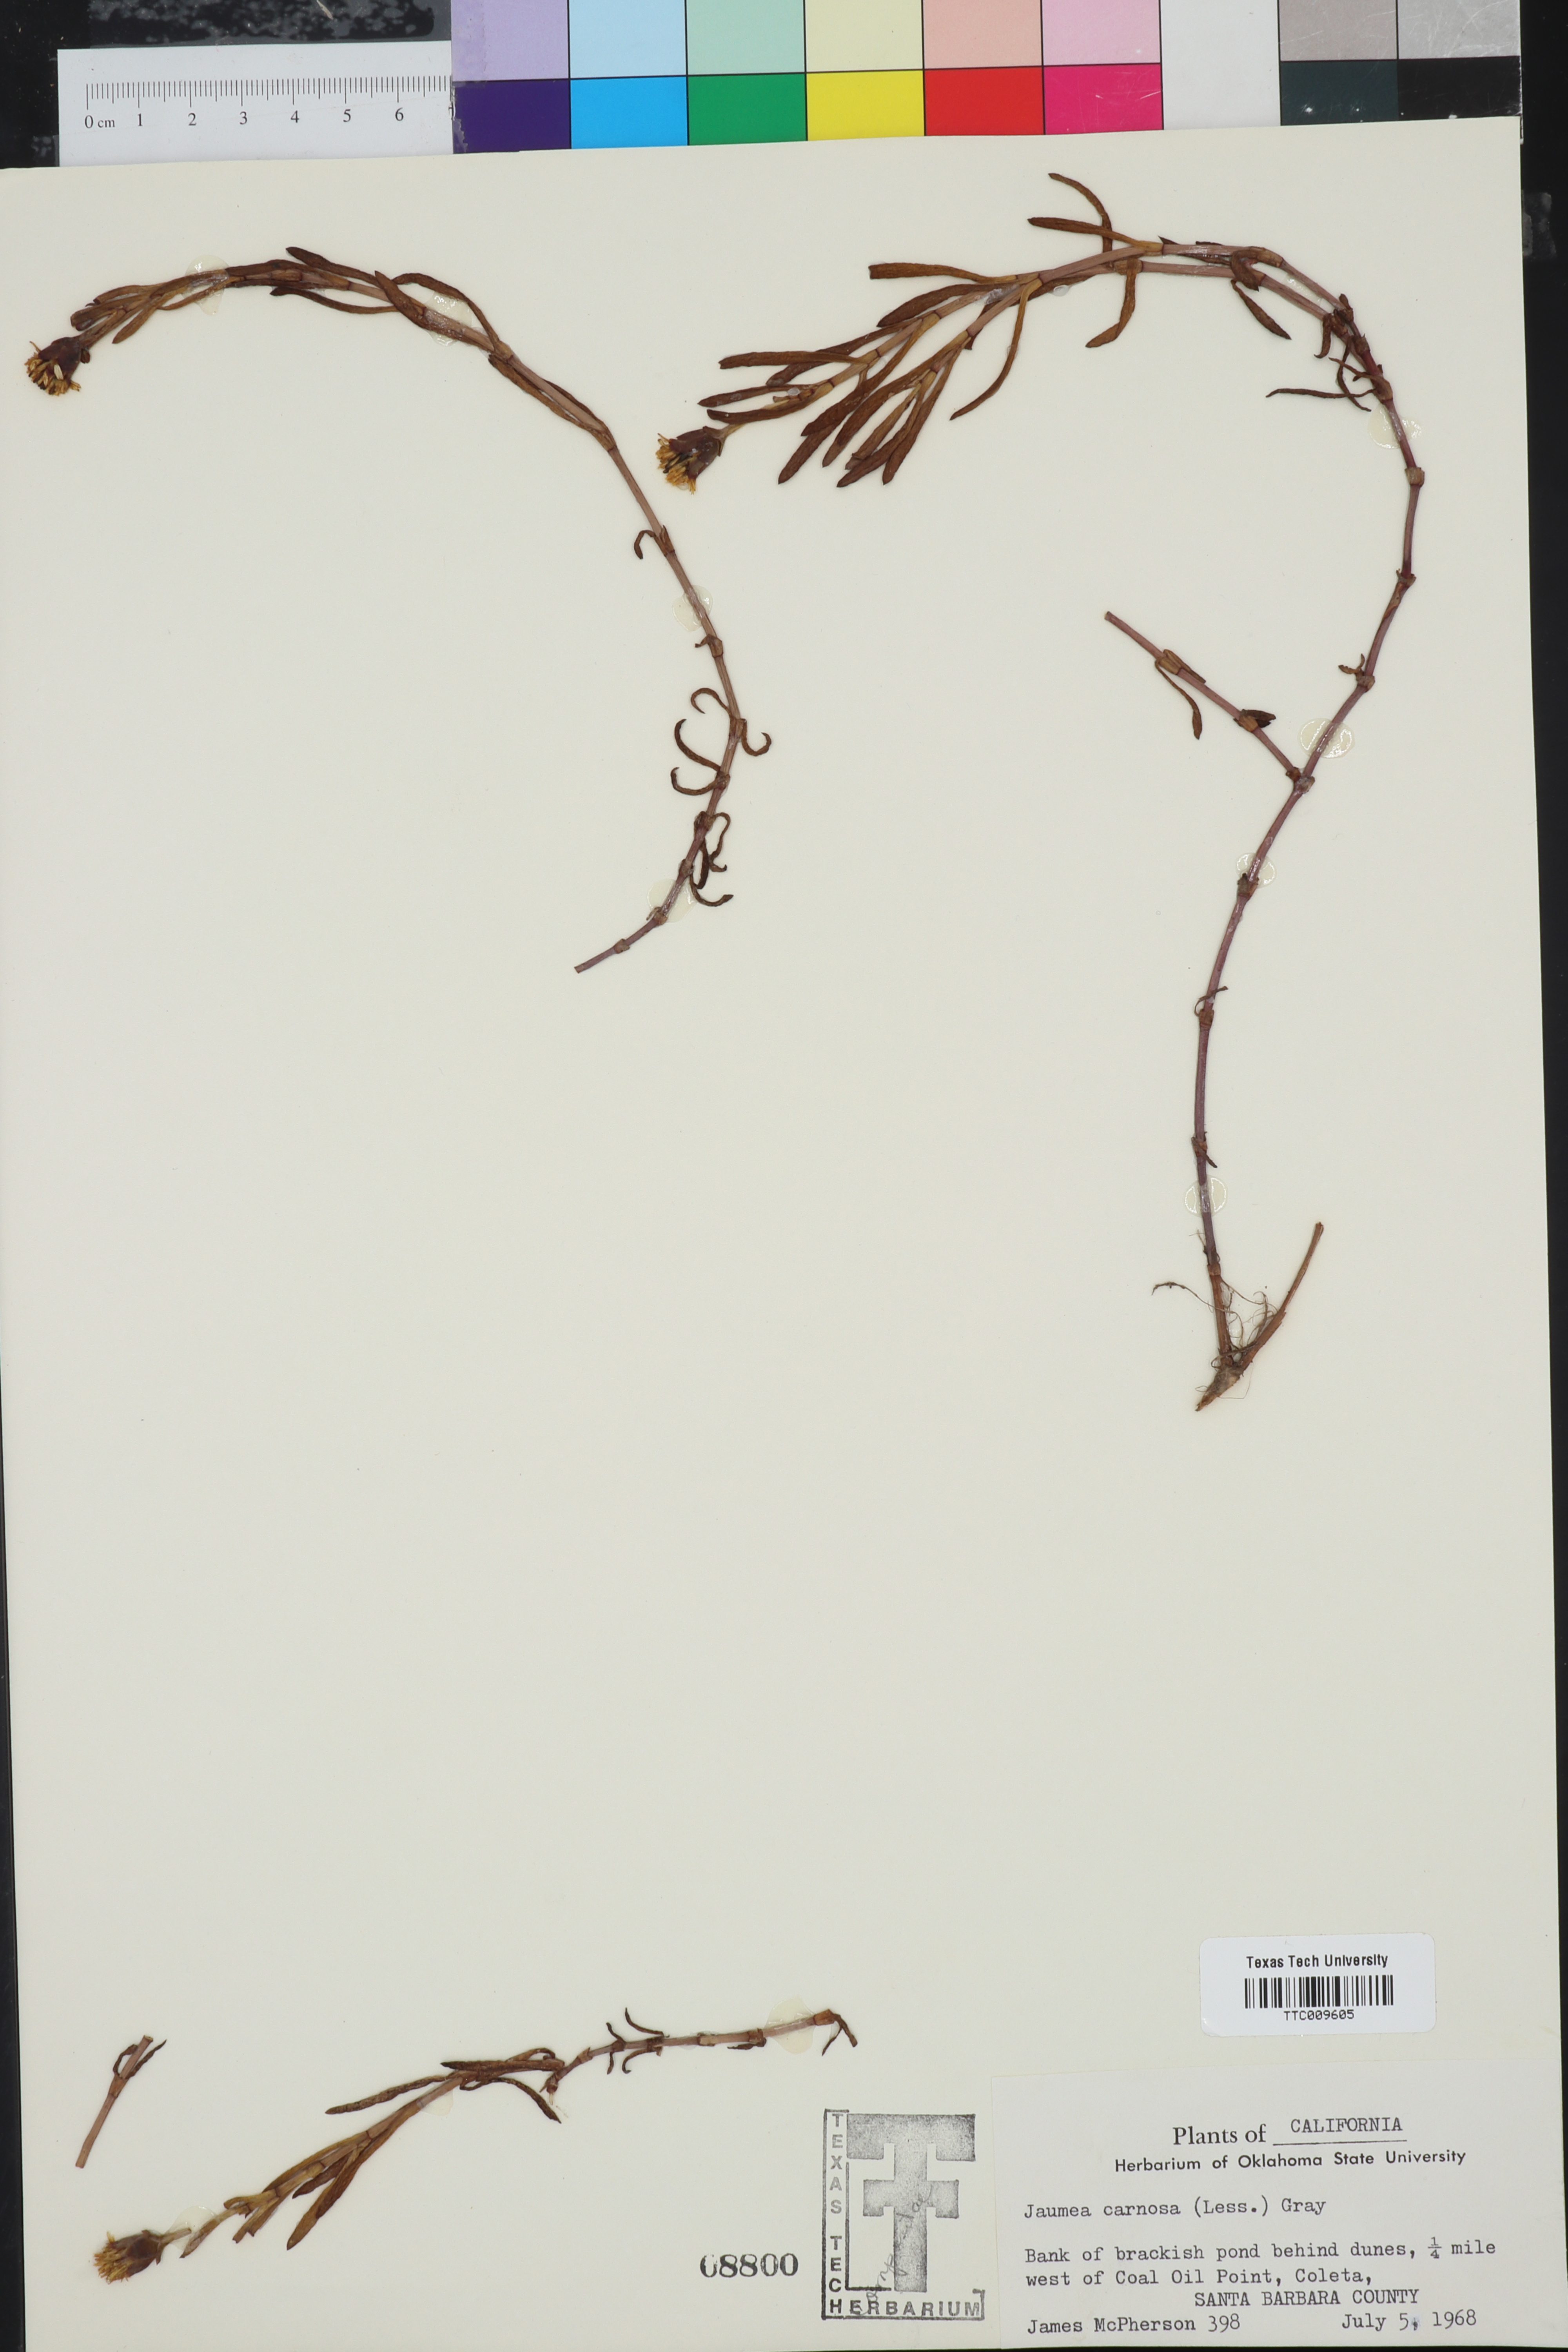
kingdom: Plantae
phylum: Tracheophyta
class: Magnoliopsida
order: Asterales
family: Asteraceae
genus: Jaumea
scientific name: Jaumea carnosa
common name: Fleshy jaumea
